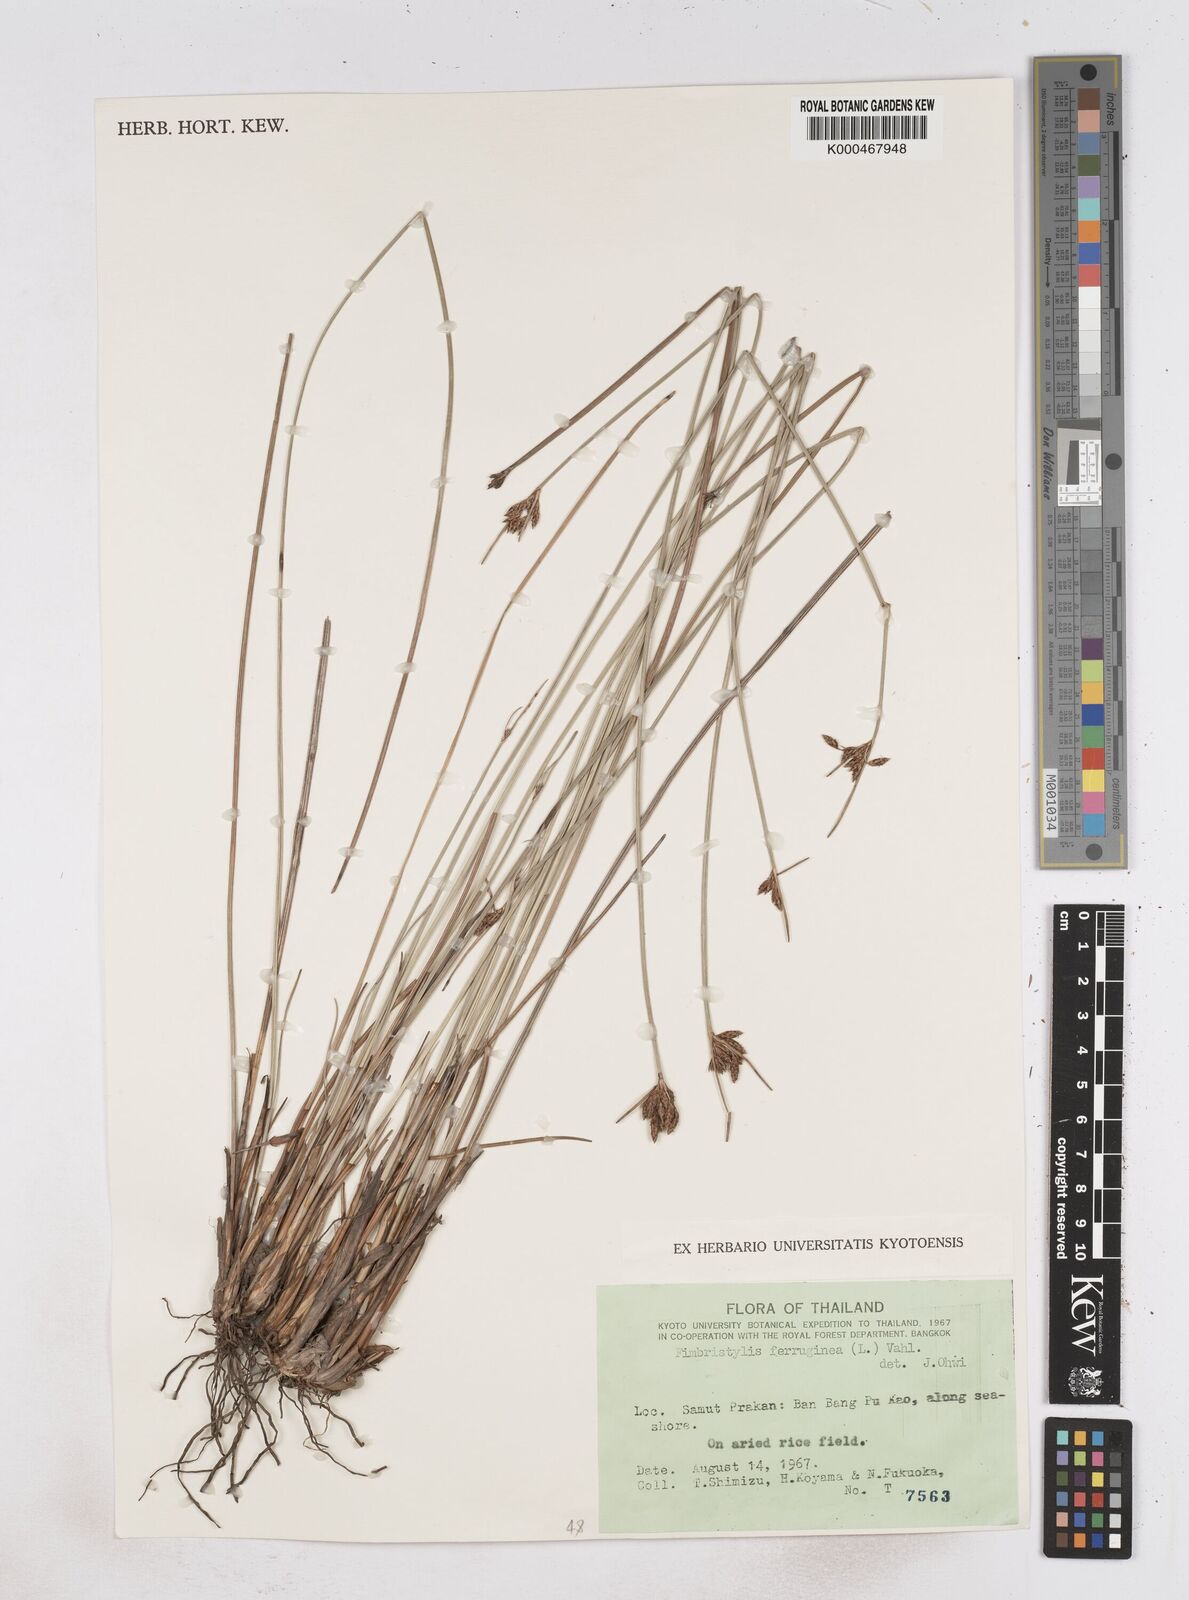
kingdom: Plantae
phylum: Tracheophyta
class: Liliopsida
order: Poales
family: Cyperaceae
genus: Fimbristylis
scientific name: Fimbristylis ferruginea
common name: West indian fimbry
